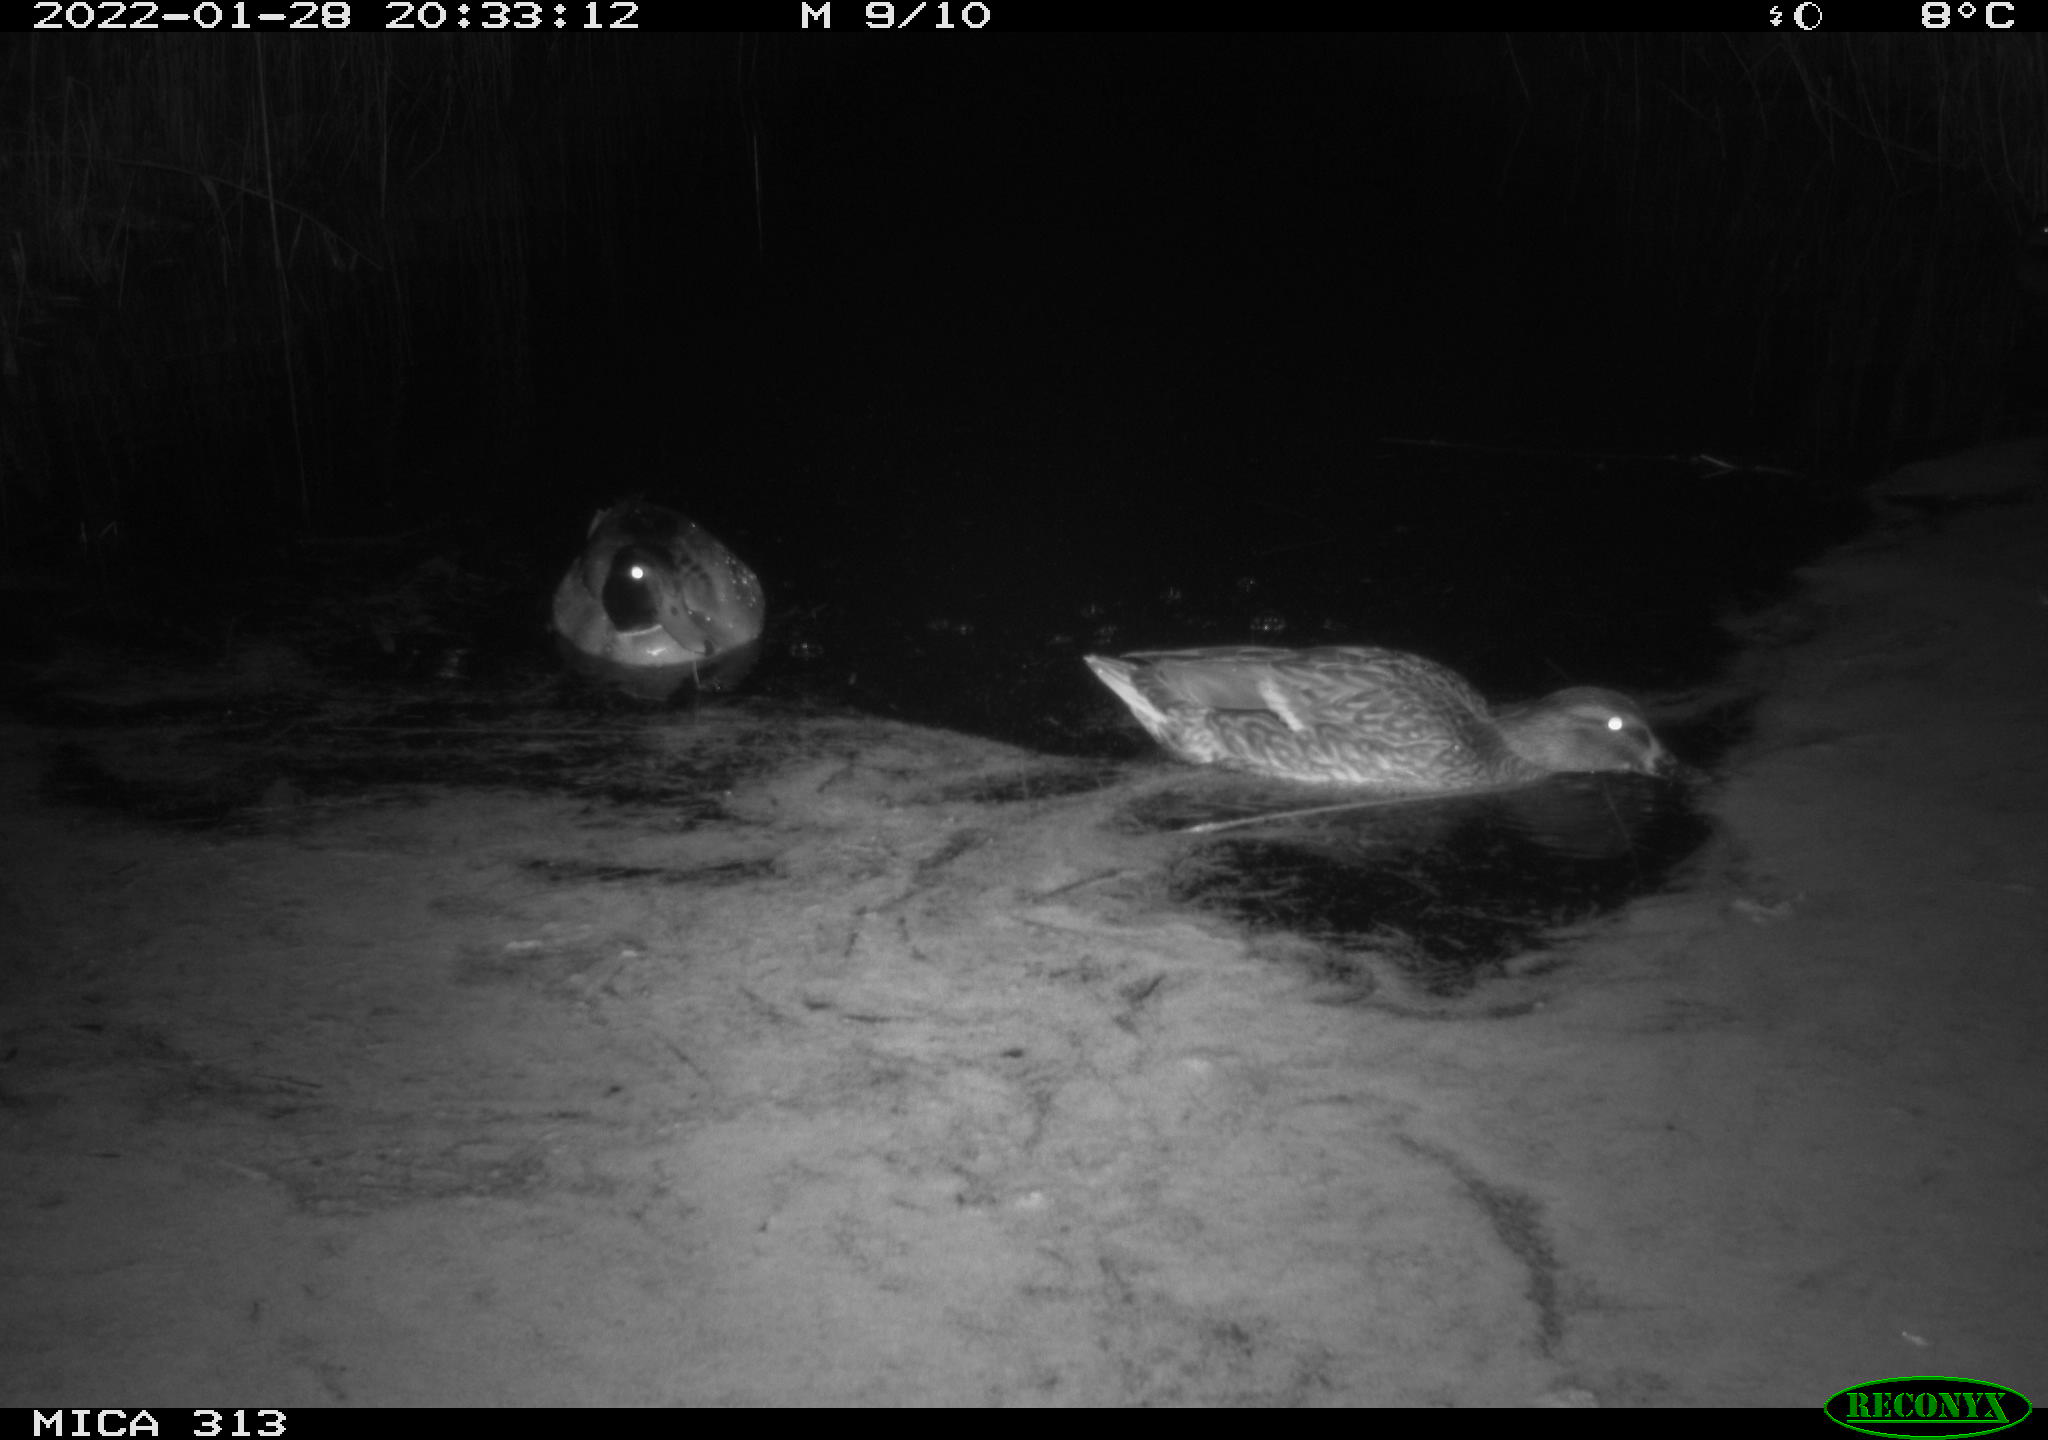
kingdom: Animalia
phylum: Chordata
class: Aves
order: Anseriformes
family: Anatidae
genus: Anas
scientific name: Anas
